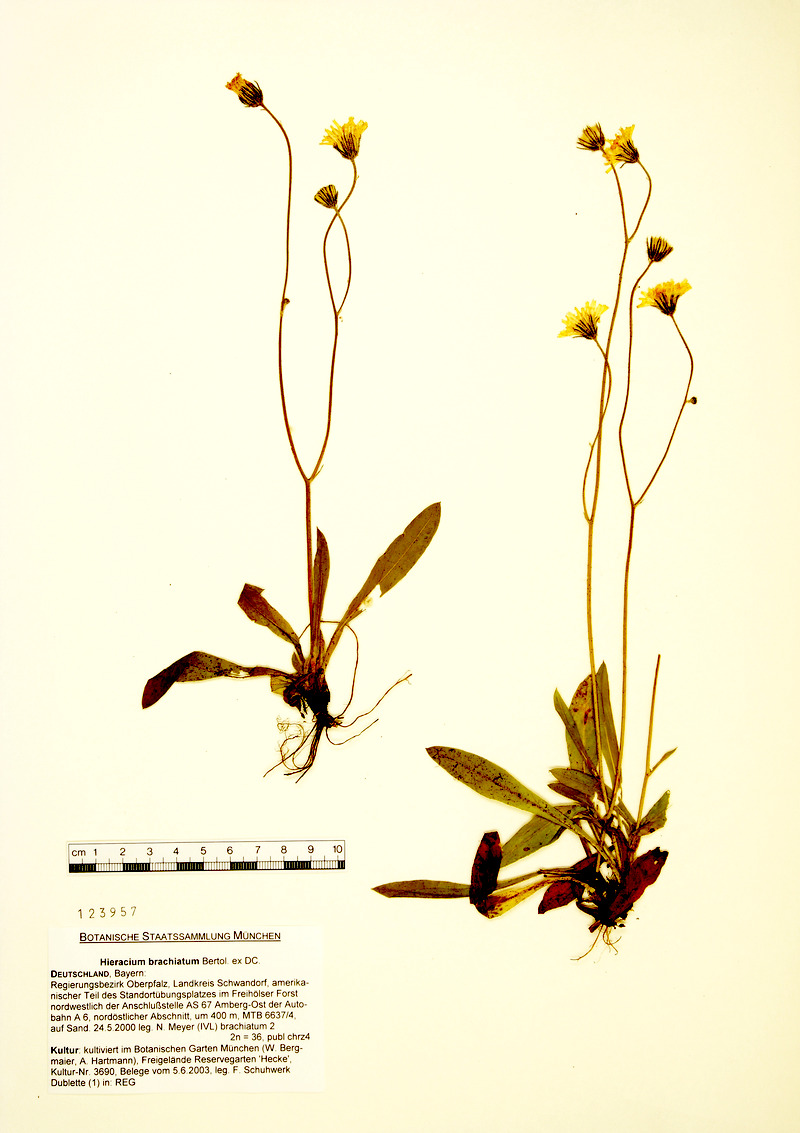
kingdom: Plantae
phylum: Tracheophyta
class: Magnoliopsida
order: Asterales
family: Asteraceae
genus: Pilosella
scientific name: Pilosella acutifolia
